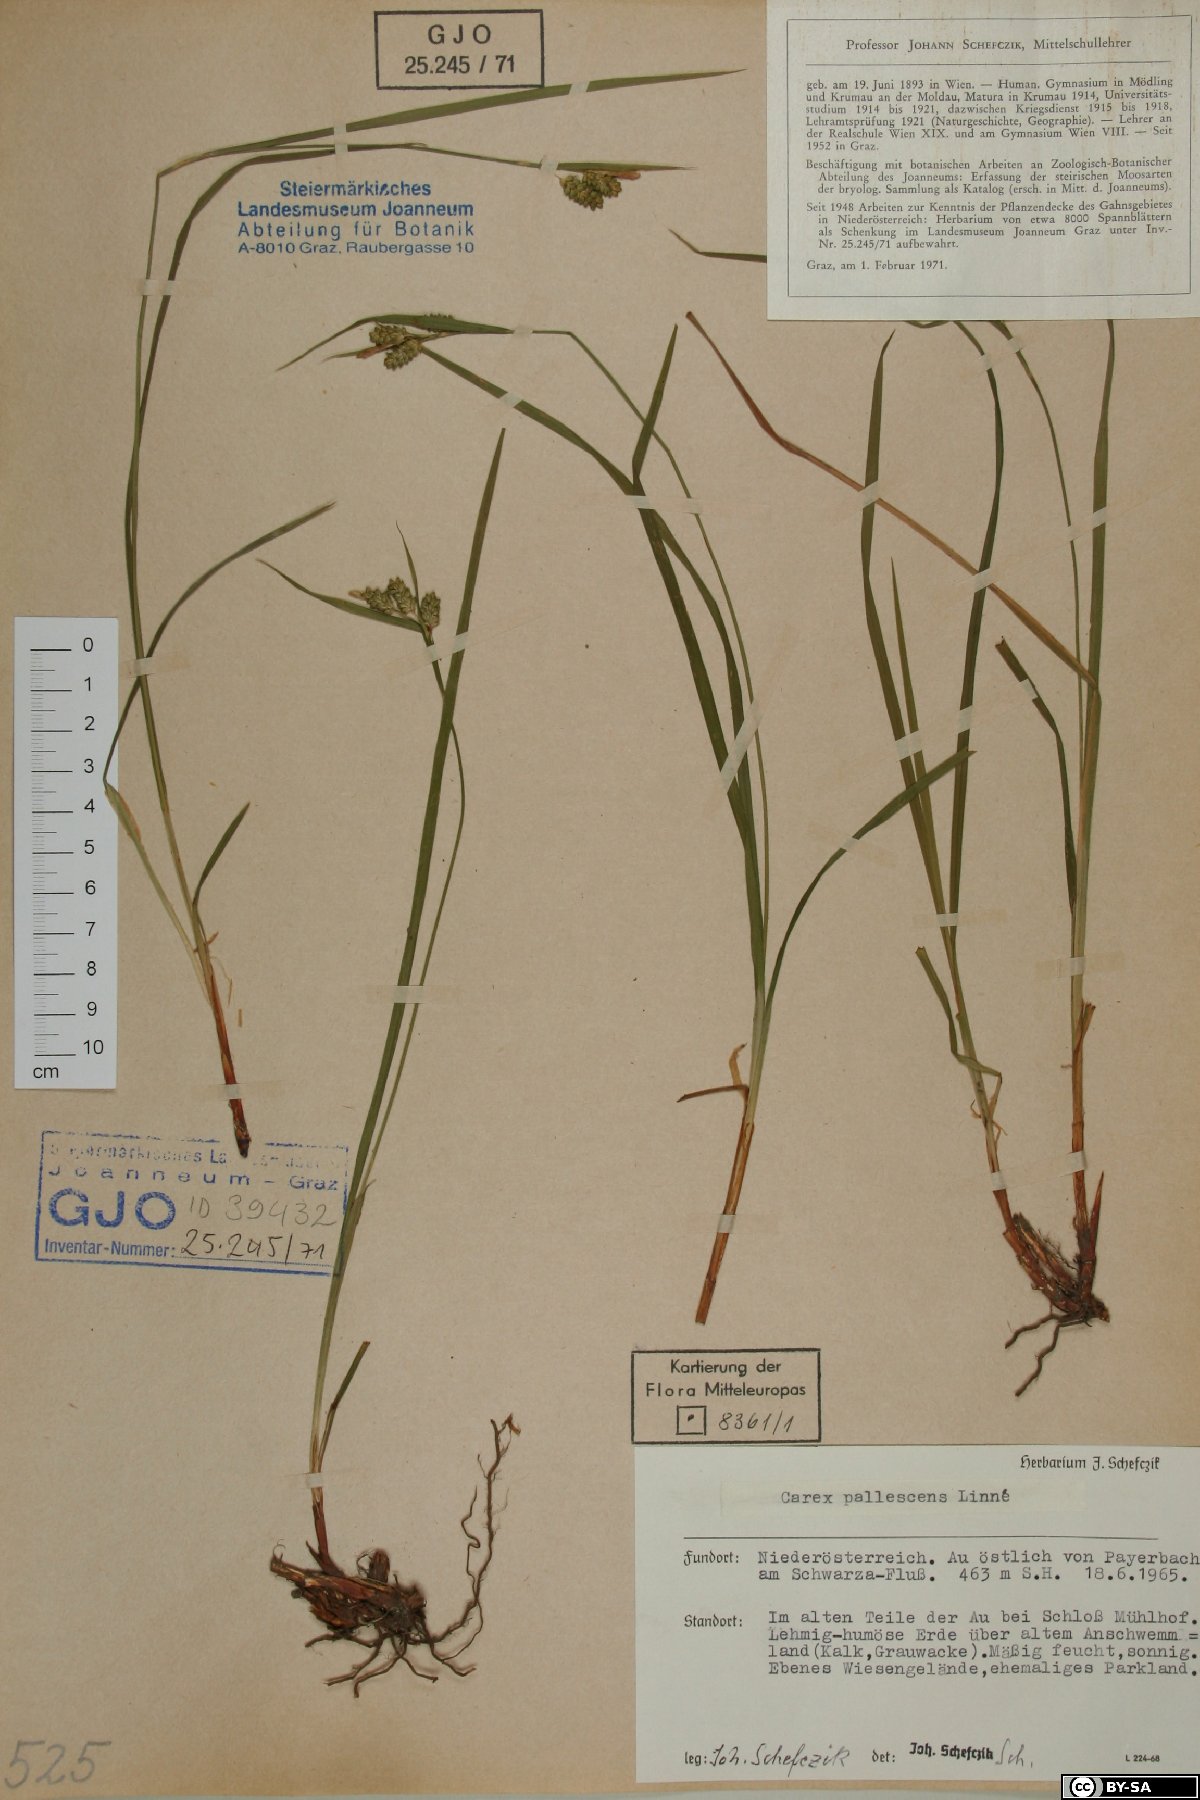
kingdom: Plantae
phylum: Tracheophyta
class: Liliopsida
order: Poales
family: Cyperaceae
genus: Carex
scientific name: Carex pallescens
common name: Pale sedge
